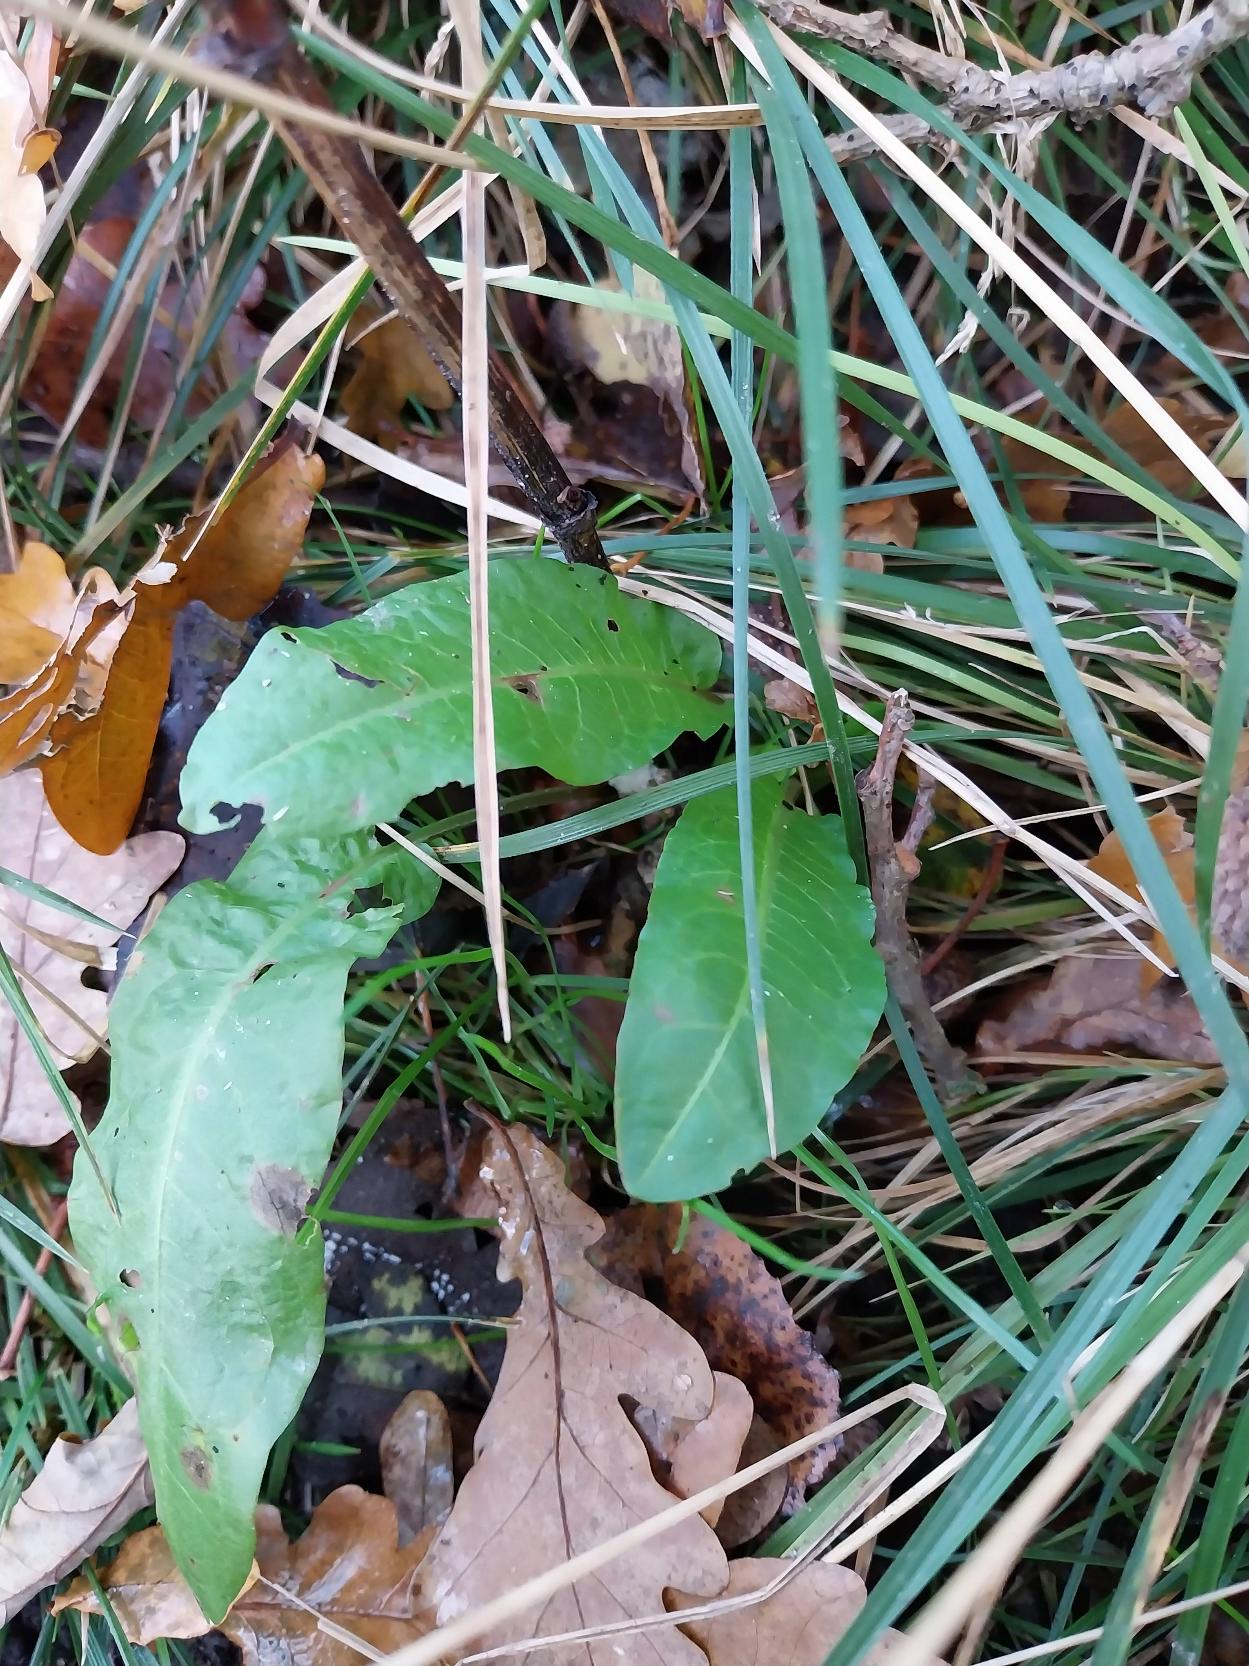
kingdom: Plantae
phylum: Tracheophyta
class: Magnoliopsida
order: Caryophyllales
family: Polygonaceae
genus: Rumex
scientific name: Rumex sanguineus
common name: Skov-skræppe
